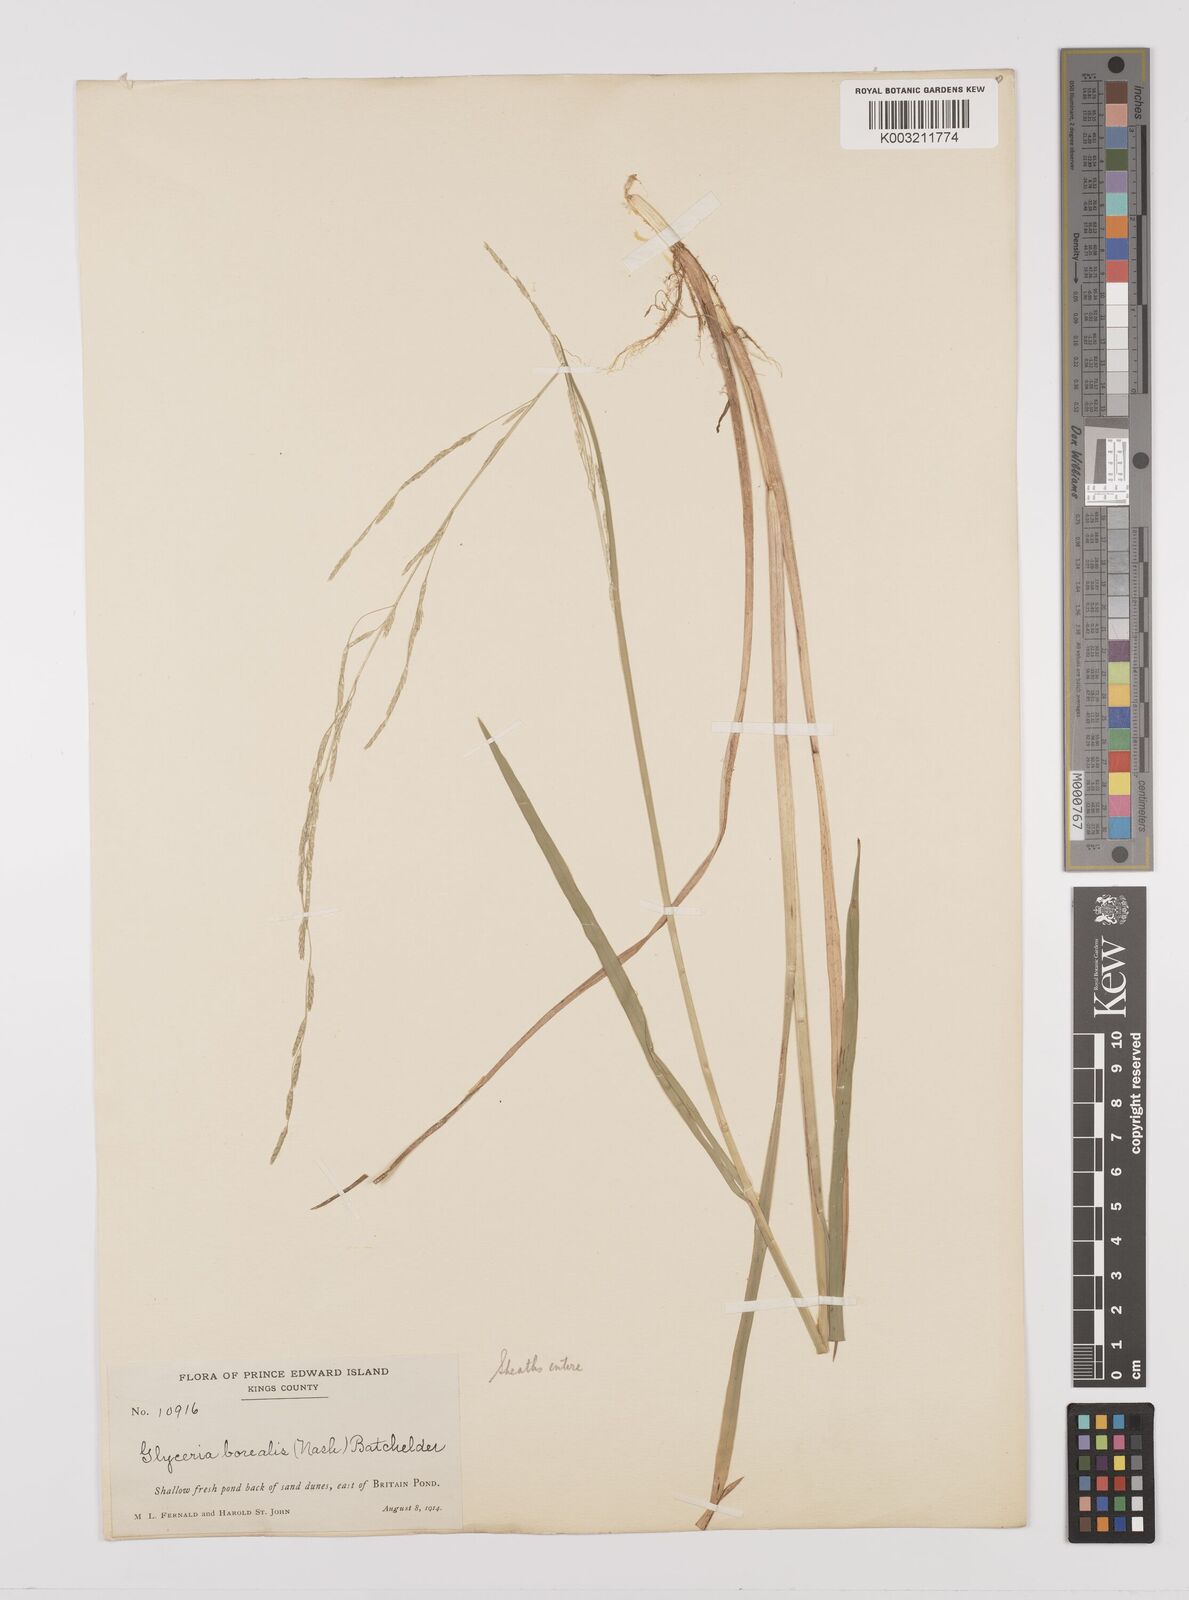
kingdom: Plantae
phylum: Tracheophyta
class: Liliopsida
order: Poales
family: Poaceae
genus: Glyceria
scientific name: Glyceria borealis
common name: Boreal glyceria
